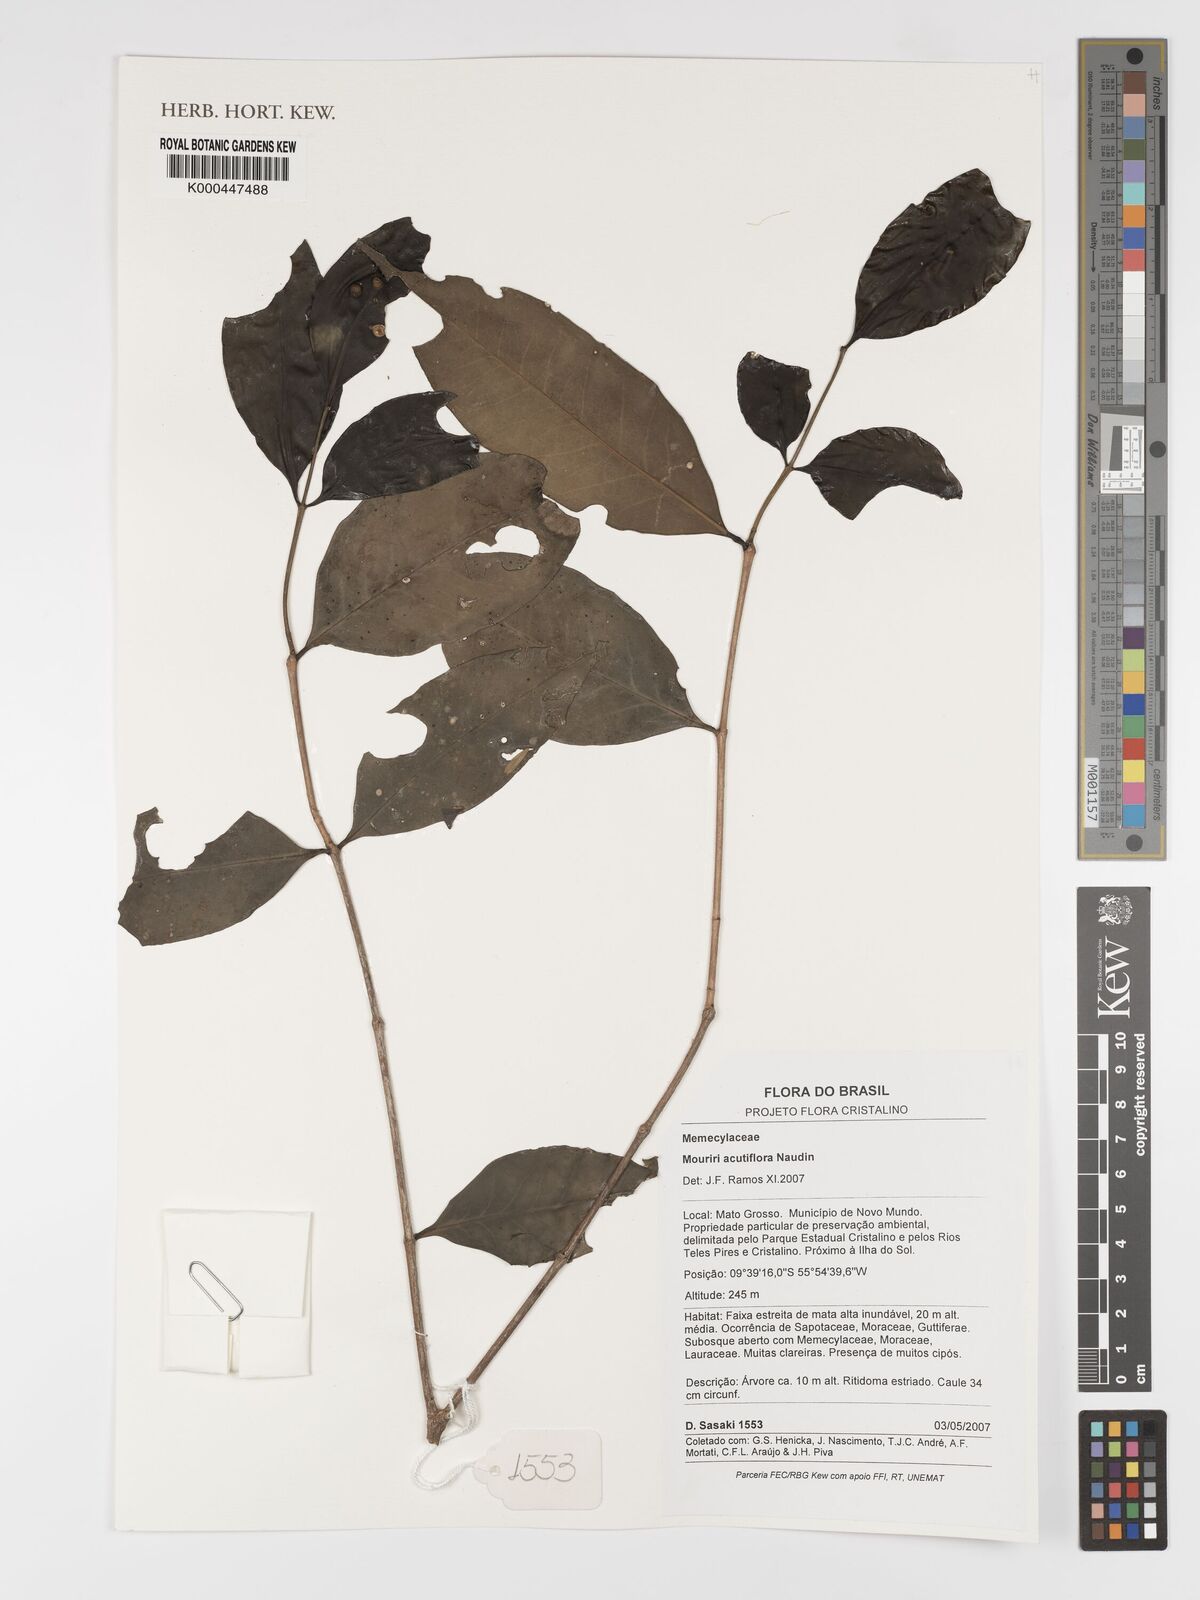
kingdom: Plantae
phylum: Tracheophyta
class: Magnoliopsida
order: Myrtales
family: Melastomataceae
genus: Mouriri
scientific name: Mouriri acutiflora
